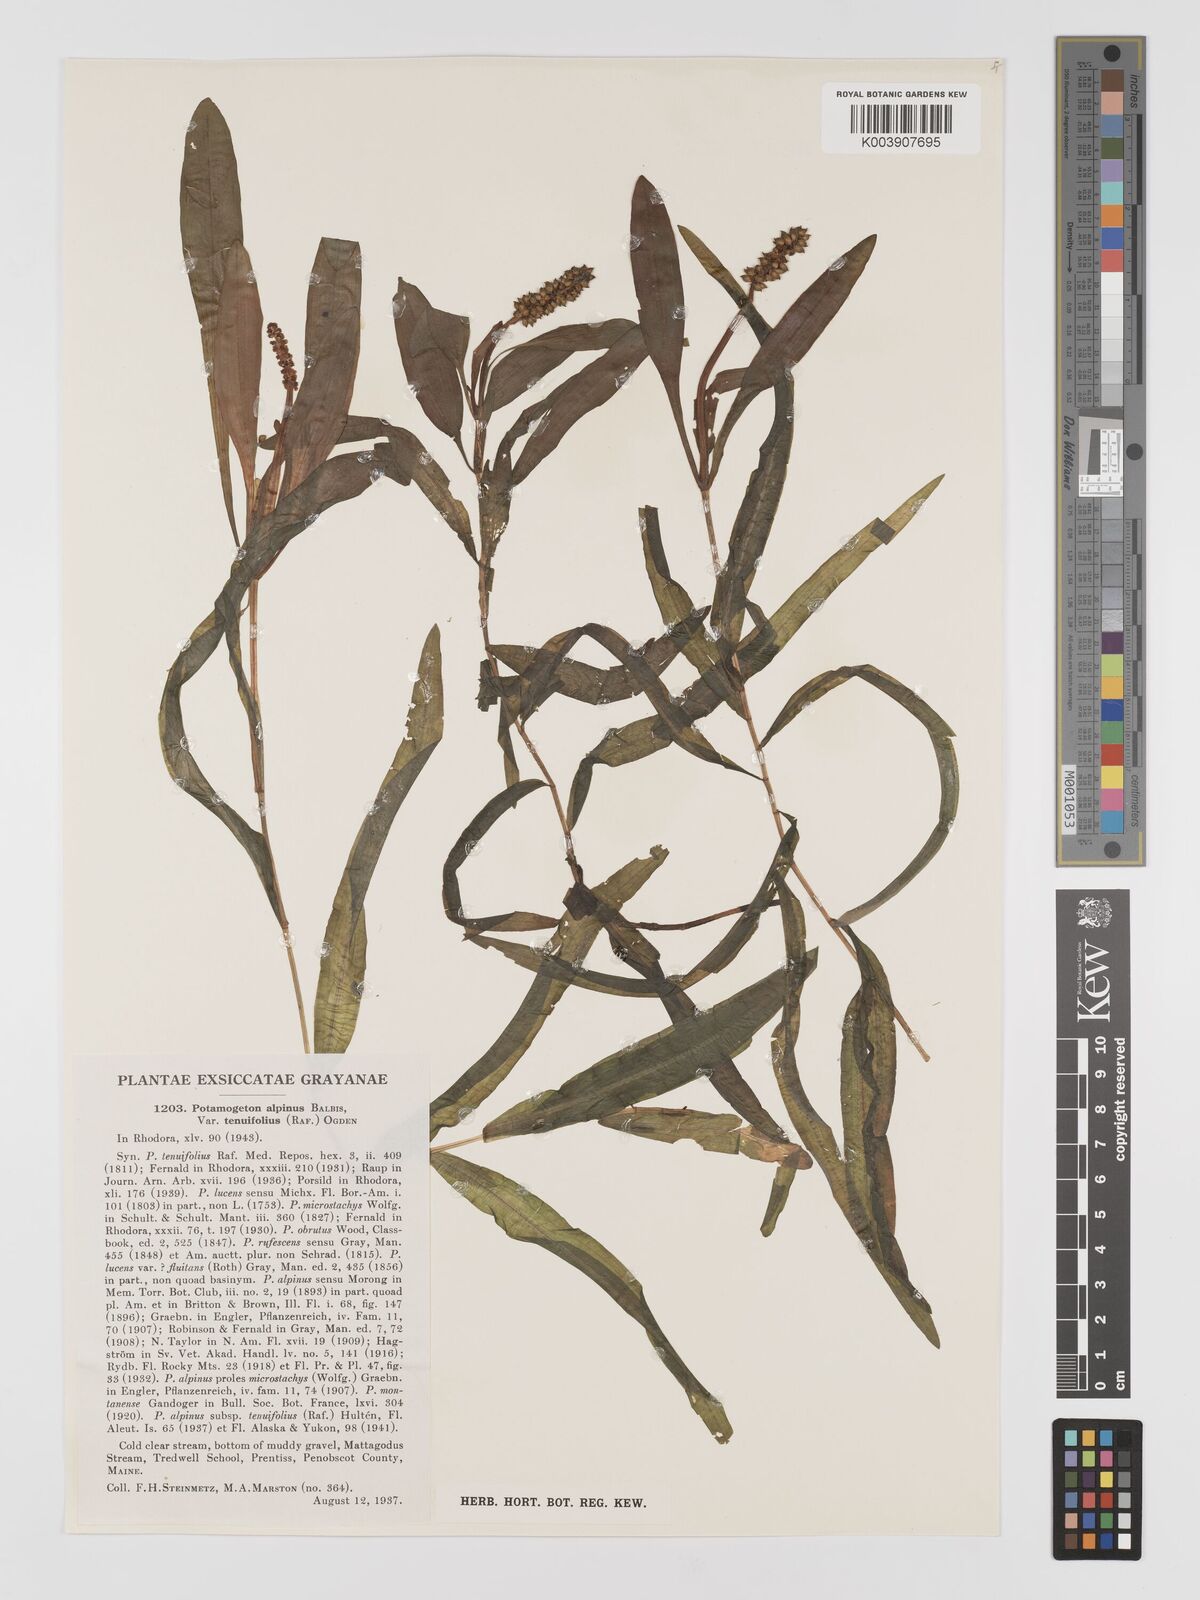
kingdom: Plantae
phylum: Tracheophyta
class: Liliopsida
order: Alismatales
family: Potamogetonaceae
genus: Potamogeton
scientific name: Potamogeton alpinus
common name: Red pondweed
